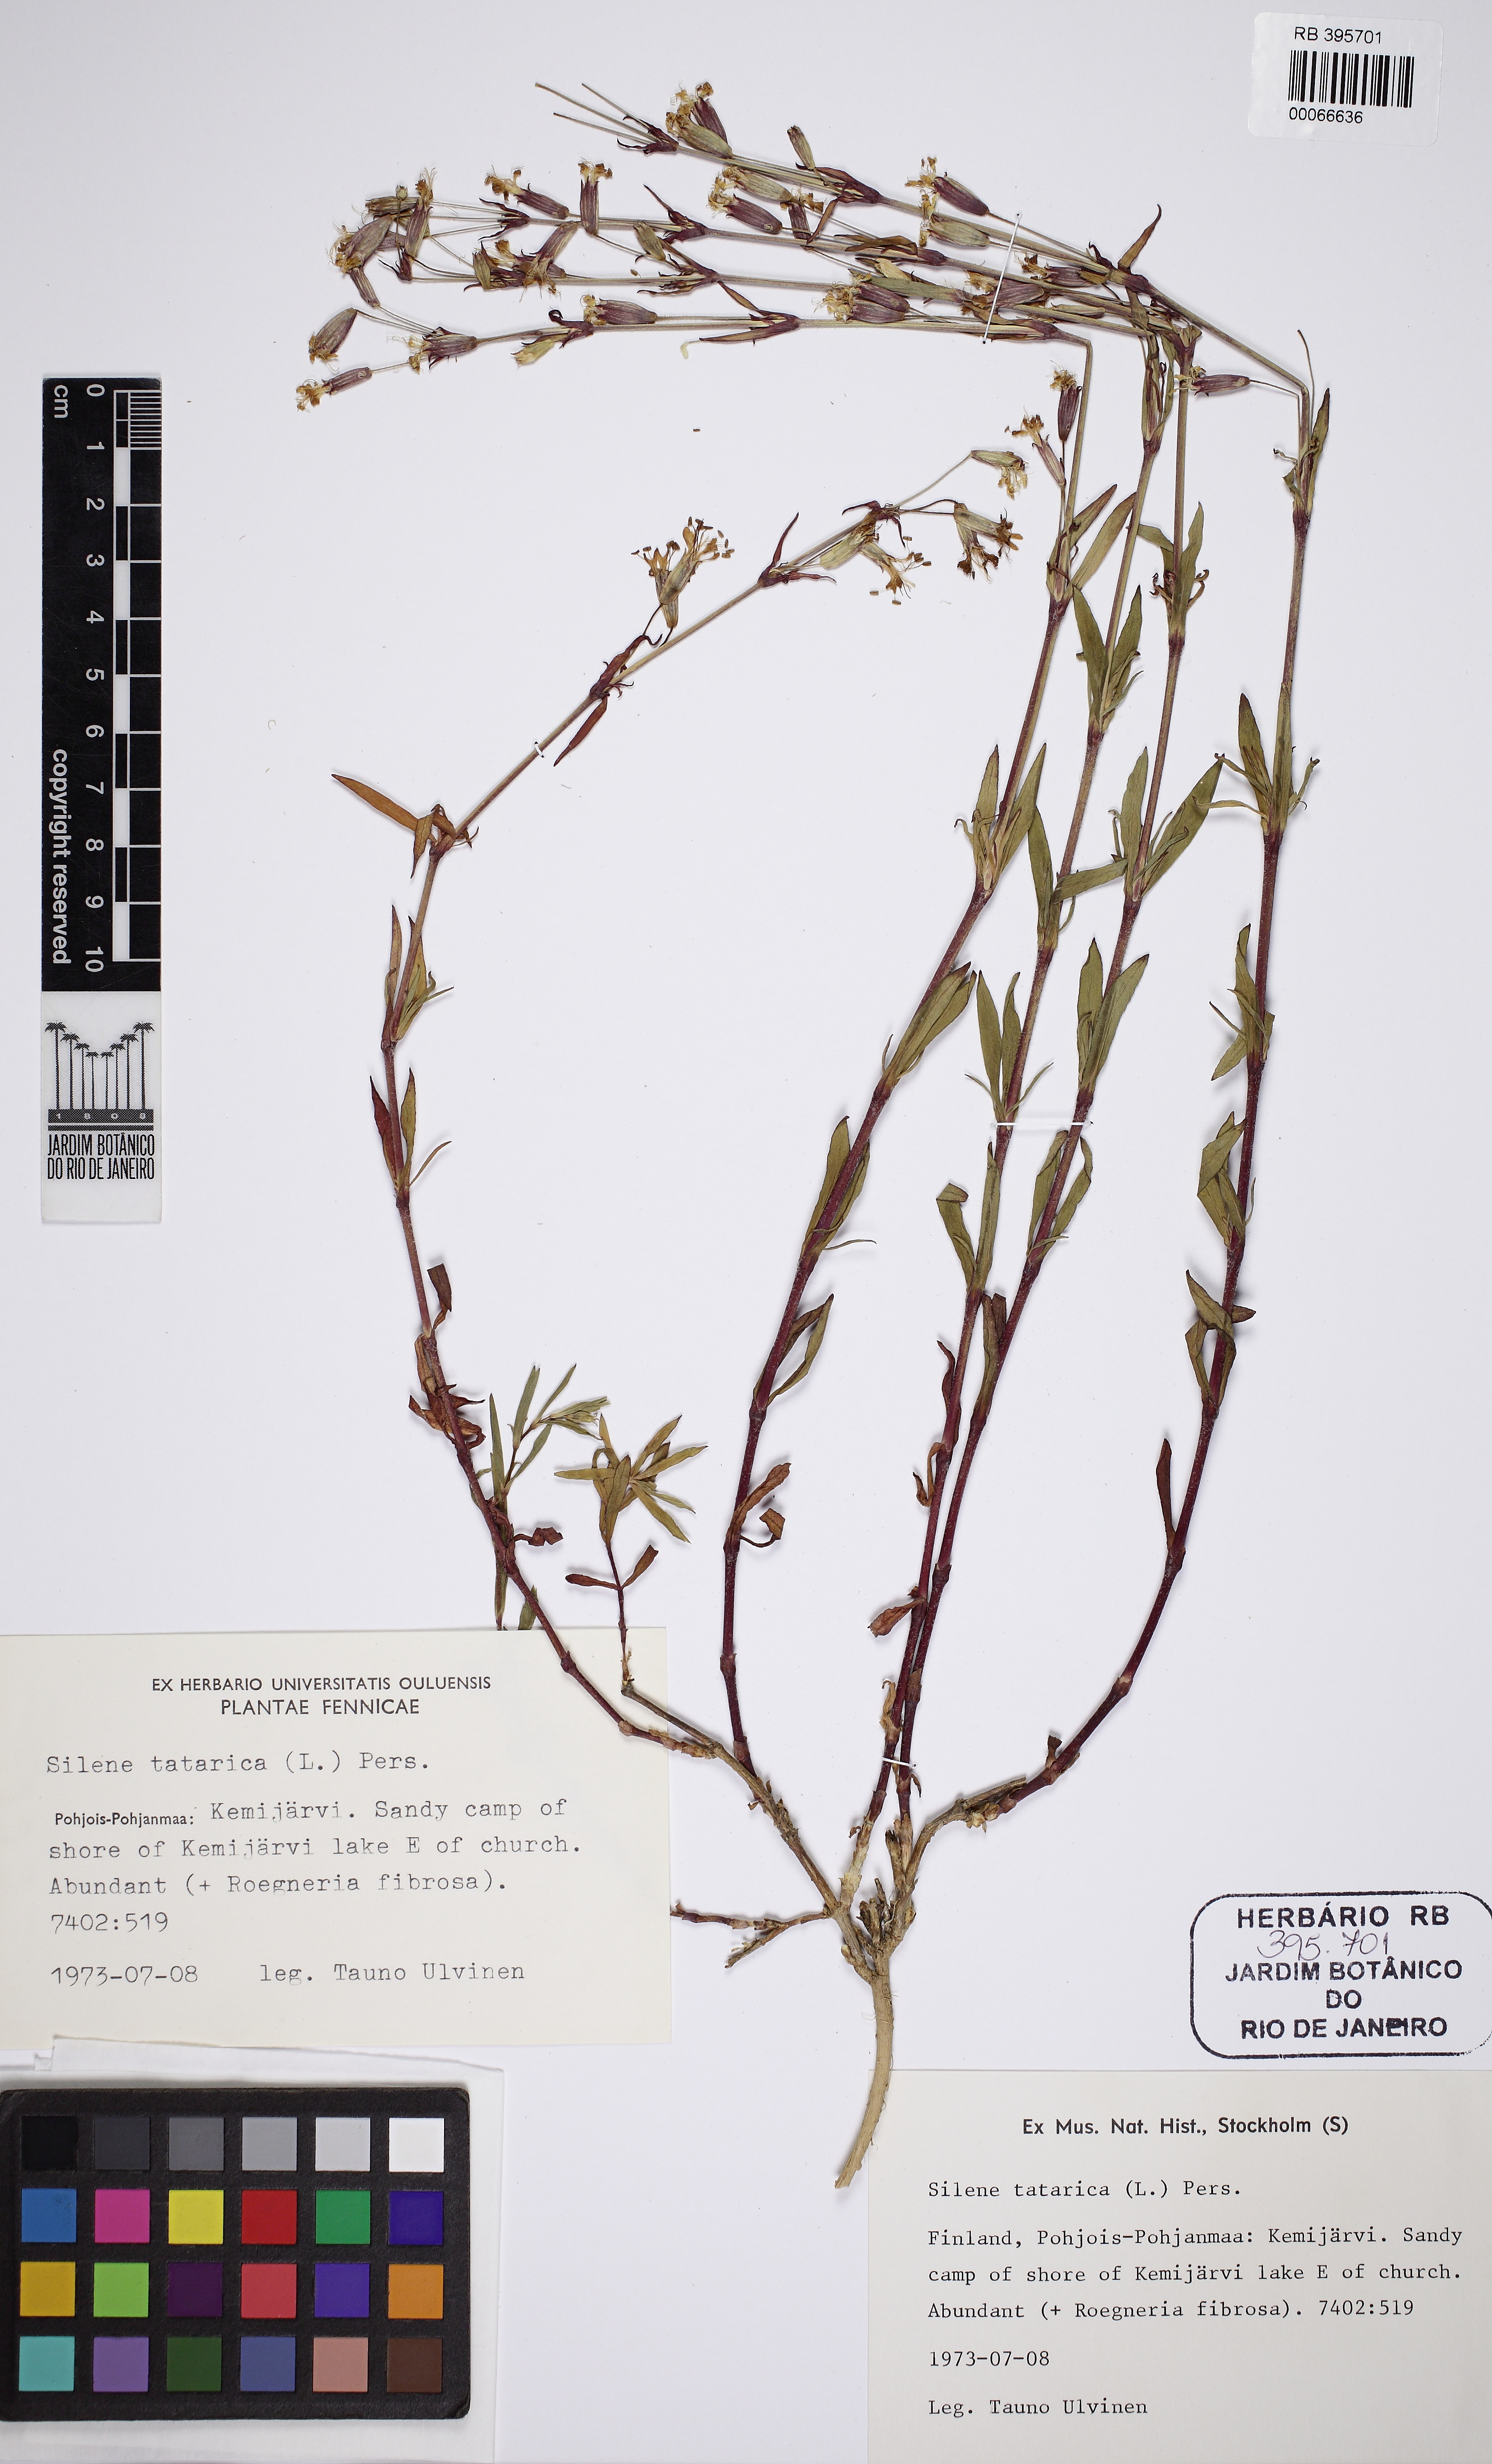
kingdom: Plantae
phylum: Tracheophyta
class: Magnoliopsida
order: Caryophyllales
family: Caryophyllaceae
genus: Silene
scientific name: Silene tatarica
